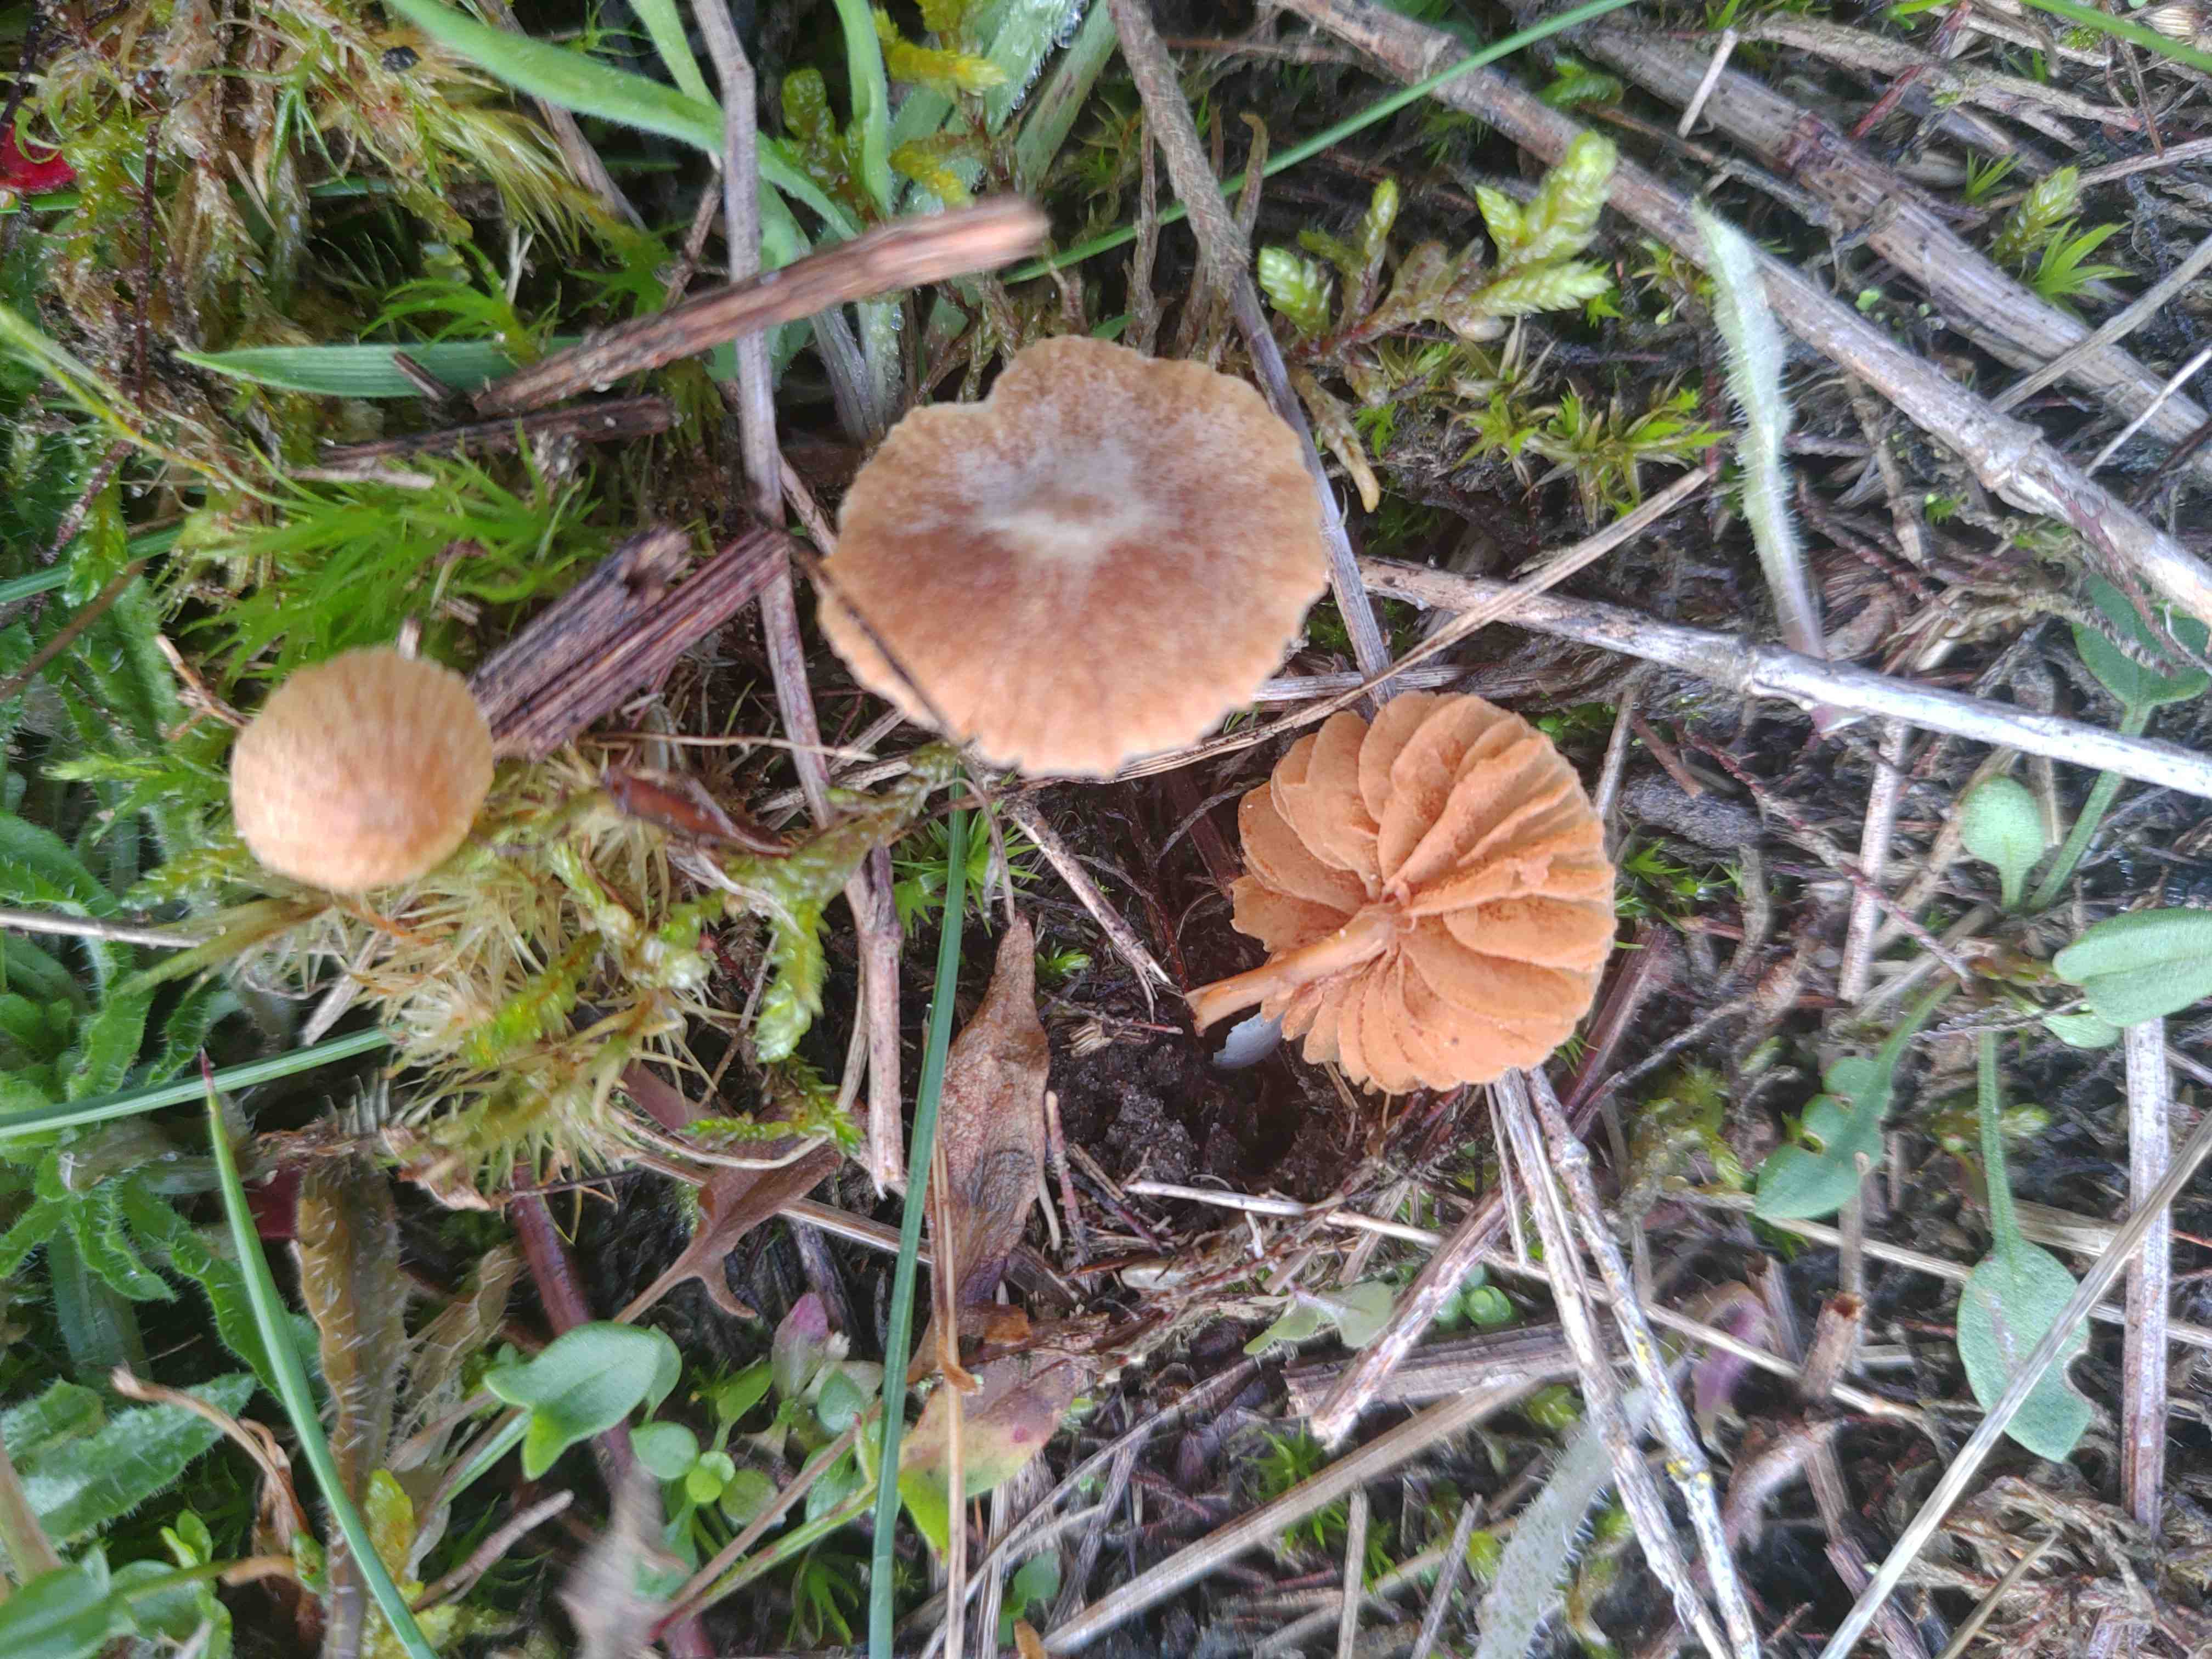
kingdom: Fungi
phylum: Basidiomycota
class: Agaricomycetes
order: Agaricales
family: Tubariaceae
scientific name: Tubariaceae
